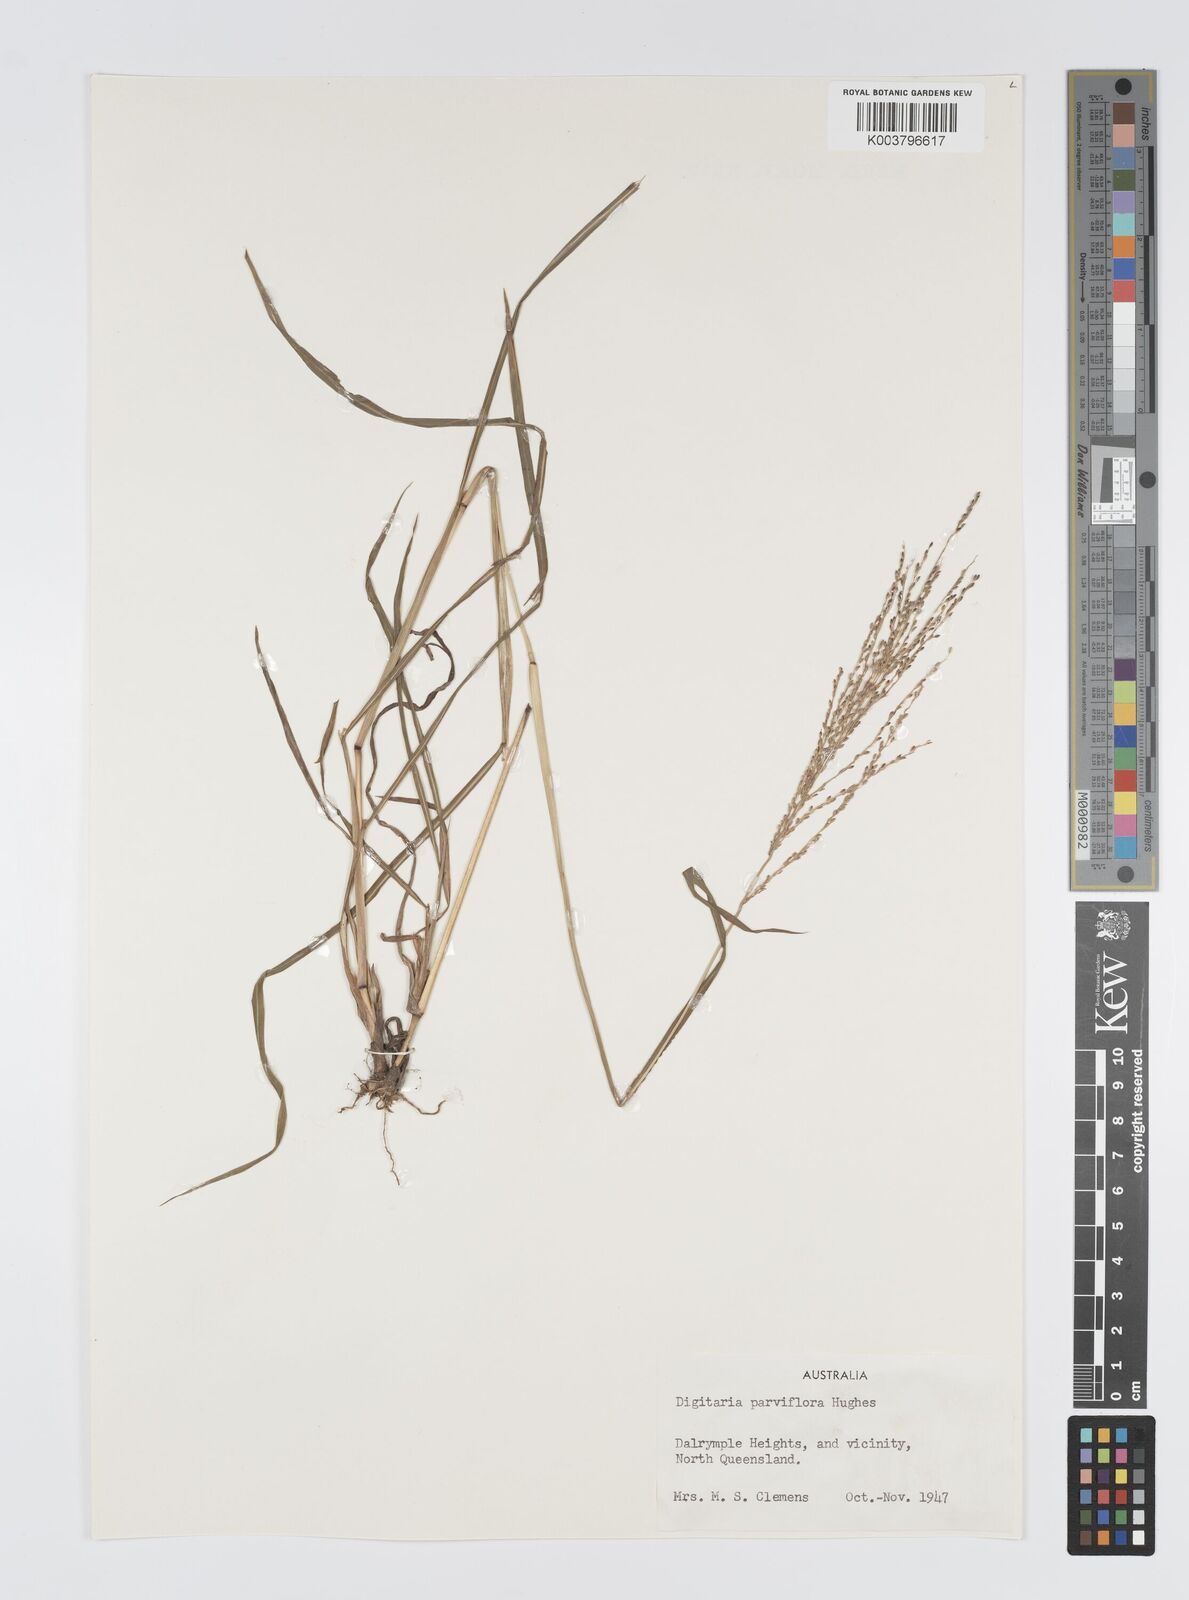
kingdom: Plantae
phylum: Tracheophyta
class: Liliopsida
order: Poales
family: Poaceae
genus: Digitaria
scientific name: Digitaria parviflora
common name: Small-flower finger grass
